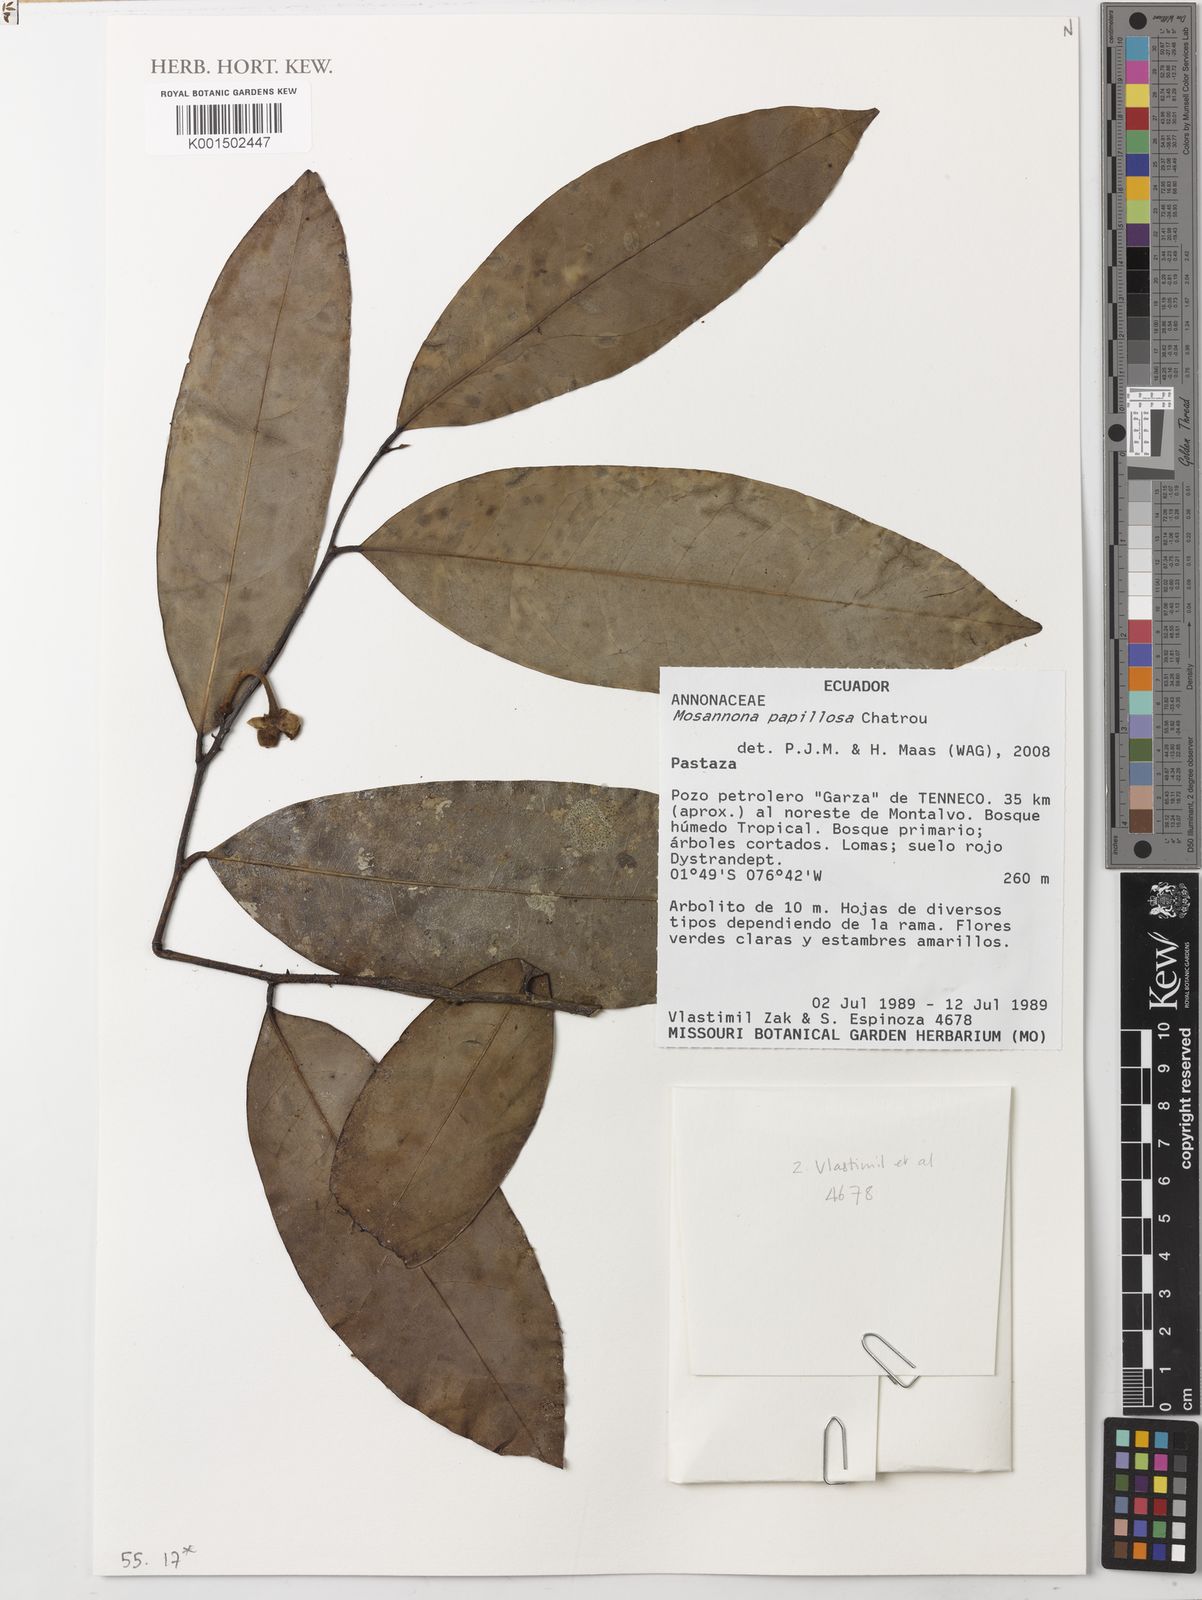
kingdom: Plantae
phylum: Tracheophyta
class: Magnoliopsida
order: Magnoliales
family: Annonaceae
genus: Mosannona
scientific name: Mosannona papillosa
